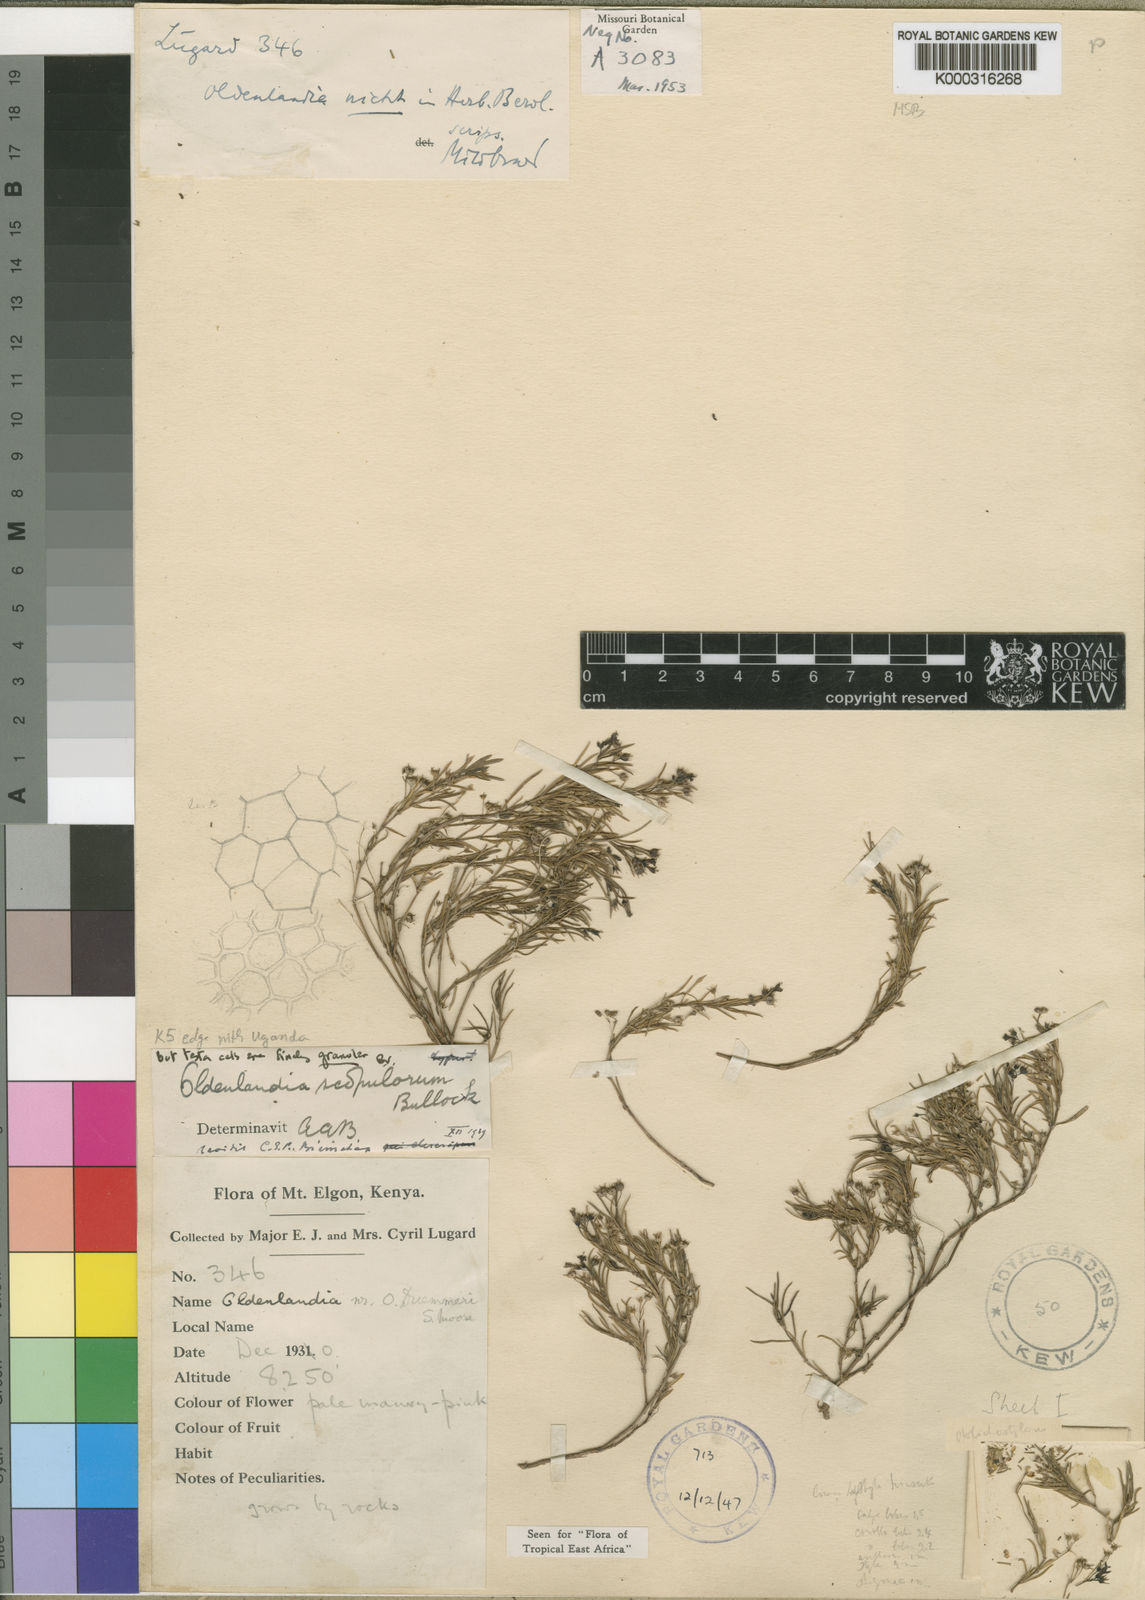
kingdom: Plantae
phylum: Tracheophyta
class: Magnoliopsida
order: Gentianales
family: Rubiaceae
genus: Oldenlandia
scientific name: Oldenlandia scopulorum
